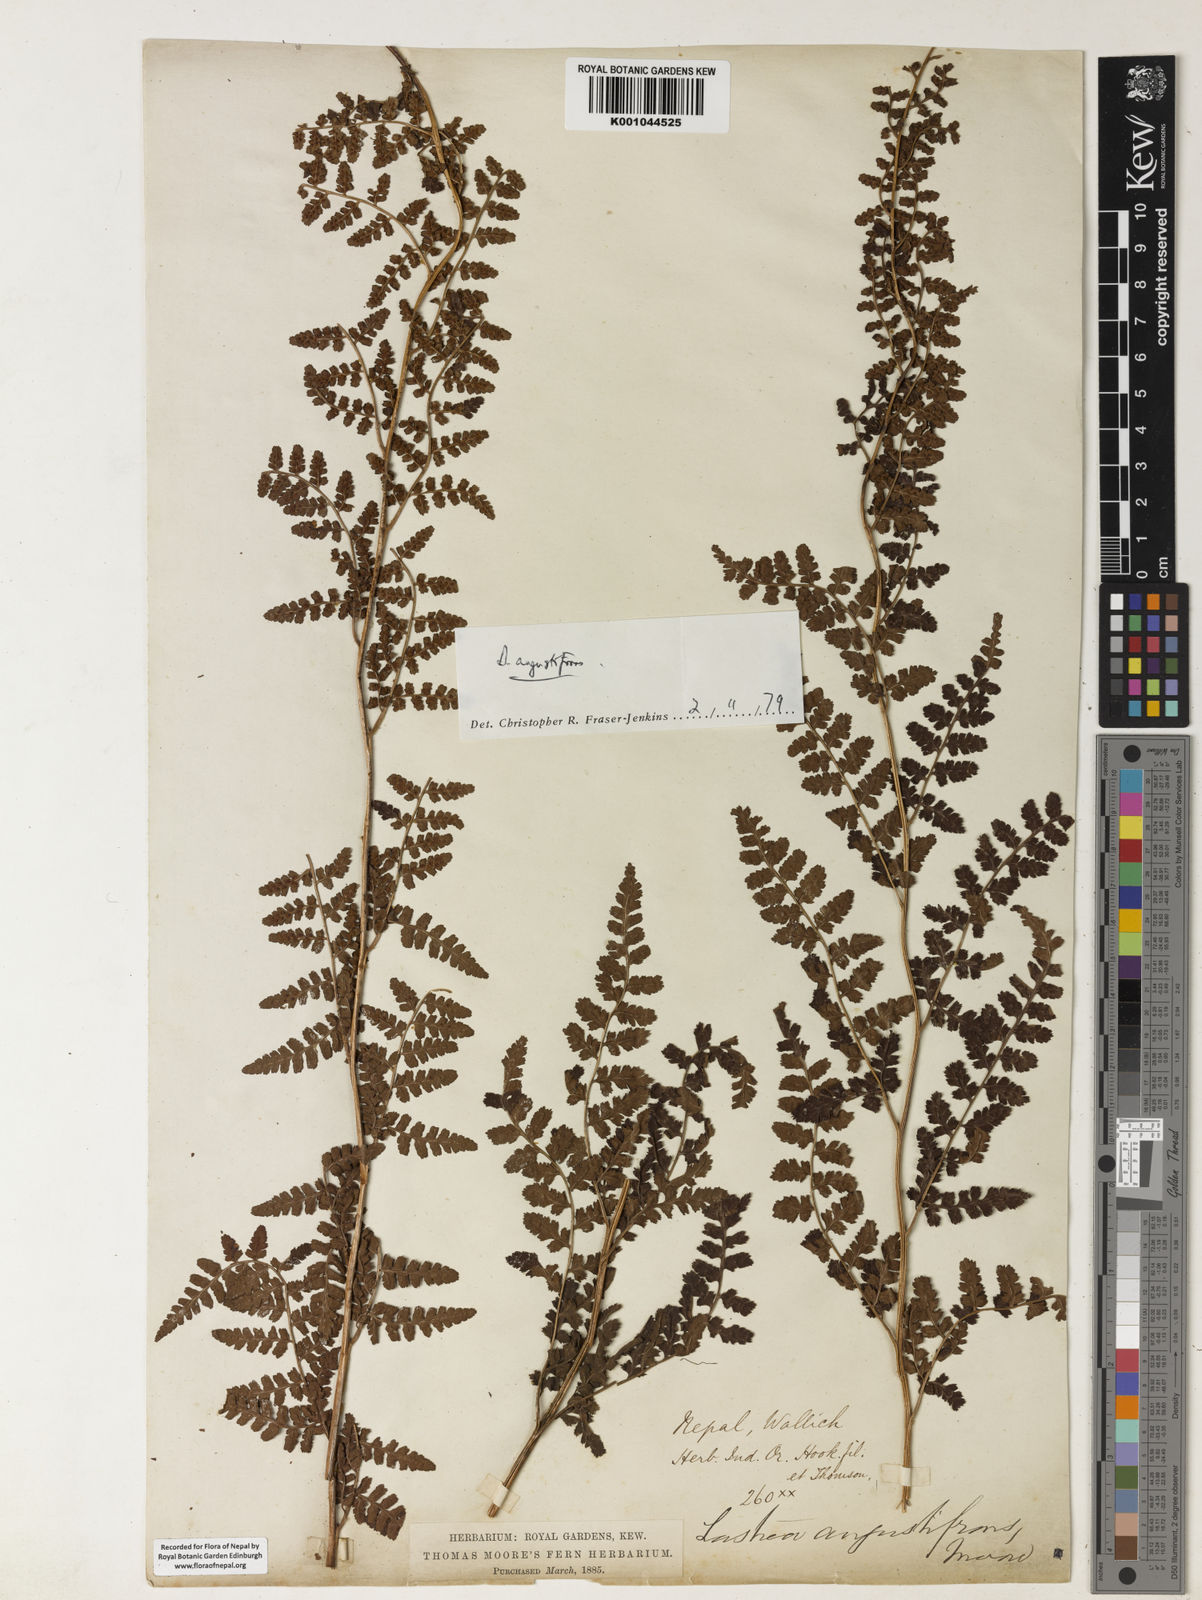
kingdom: Plantae
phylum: Tracheophyta
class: Polypodiopsida
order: Polypodiales
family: Dryopteridaceae
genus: Dryopteris
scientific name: Dryopteris
